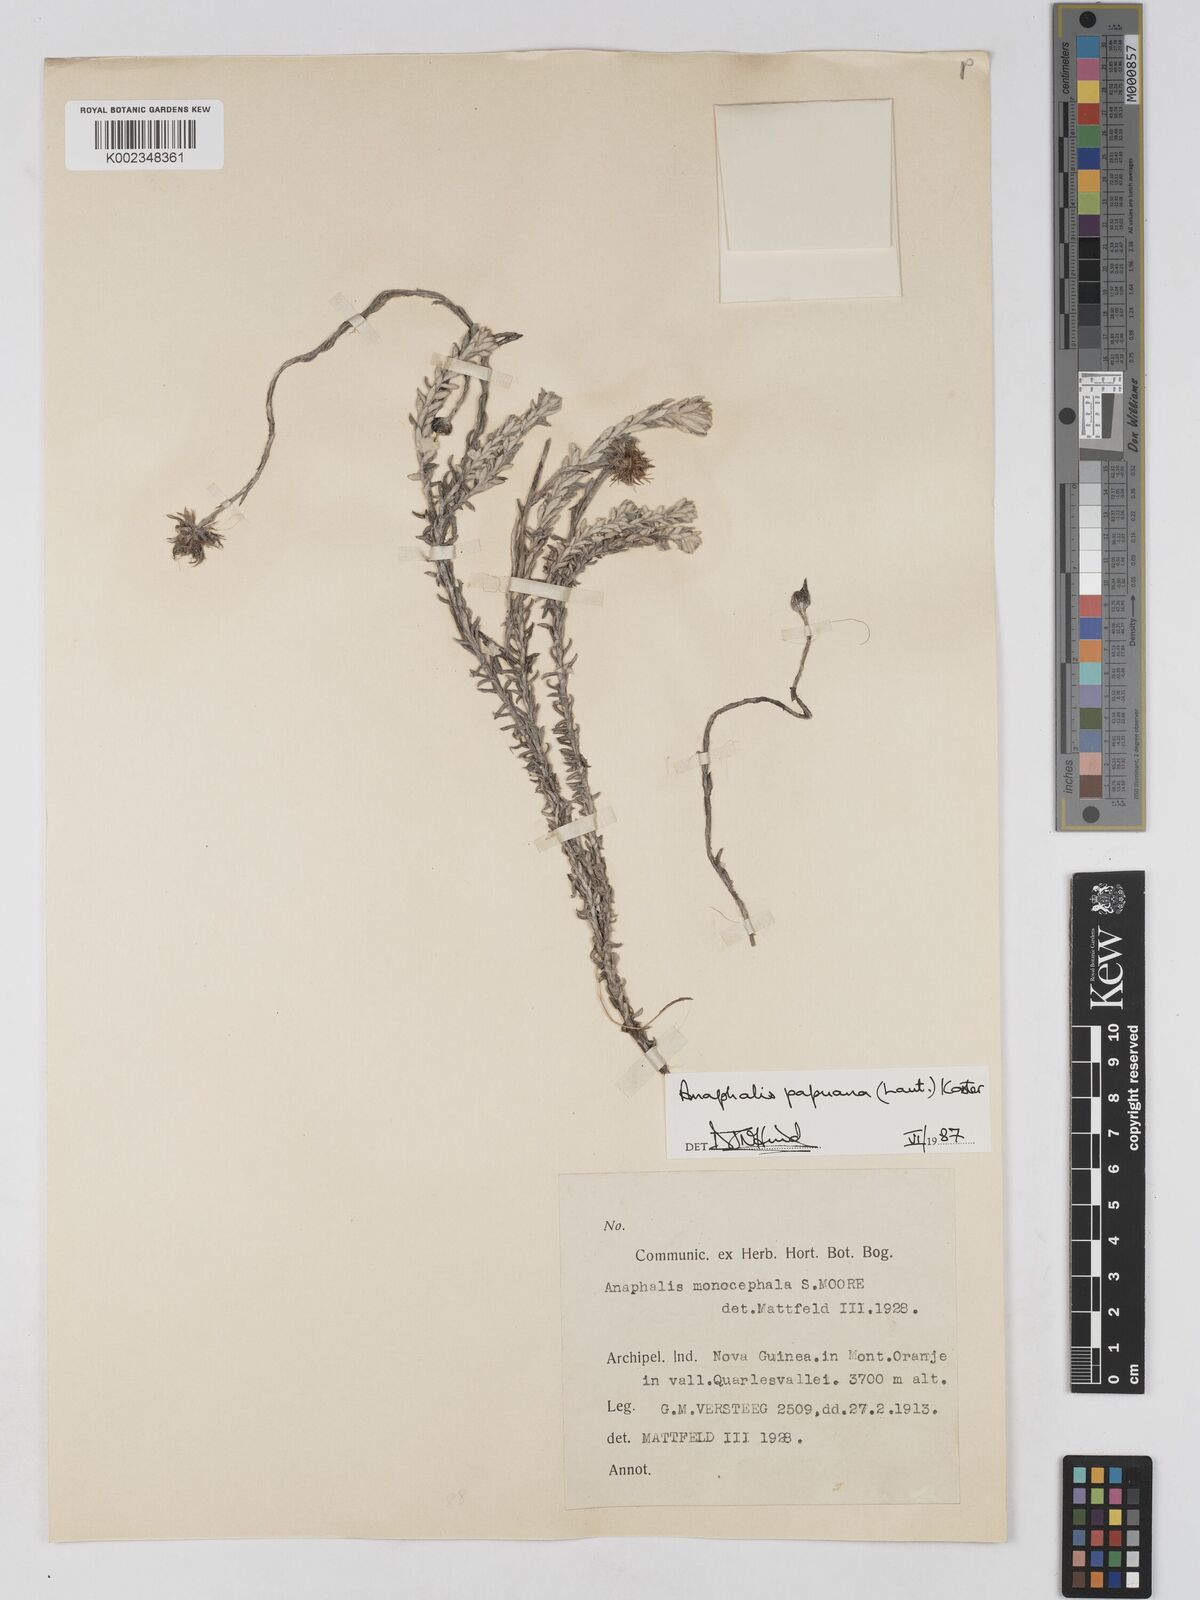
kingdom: Plantae
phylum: Tracheophyta
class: Magnoliopsida
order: Asterales
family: Asteraceae
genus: Anaphalioides
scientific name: Anaphalioides papuana
